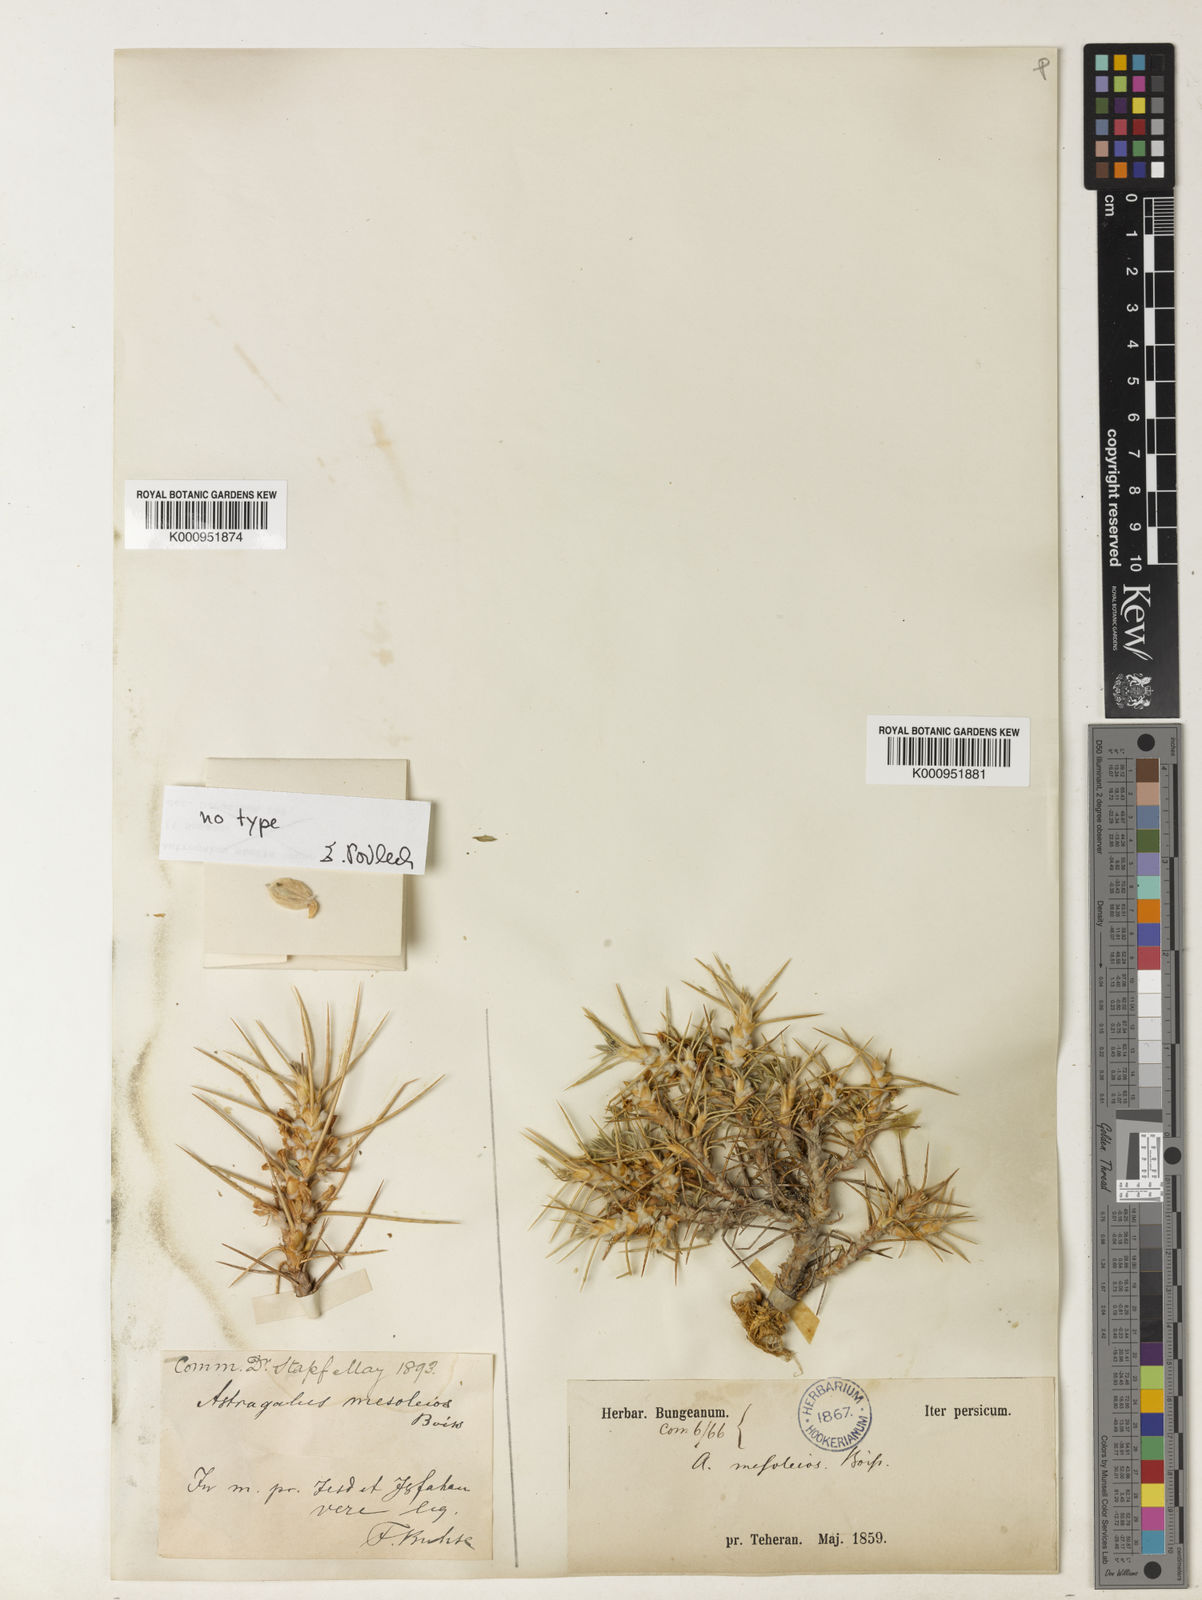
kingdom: Plantae
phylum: Tracheophyta
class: Magnoliopsida
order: Fabales
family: Fabaceae
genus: Astragalus
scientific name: Astragalus mesoleios
